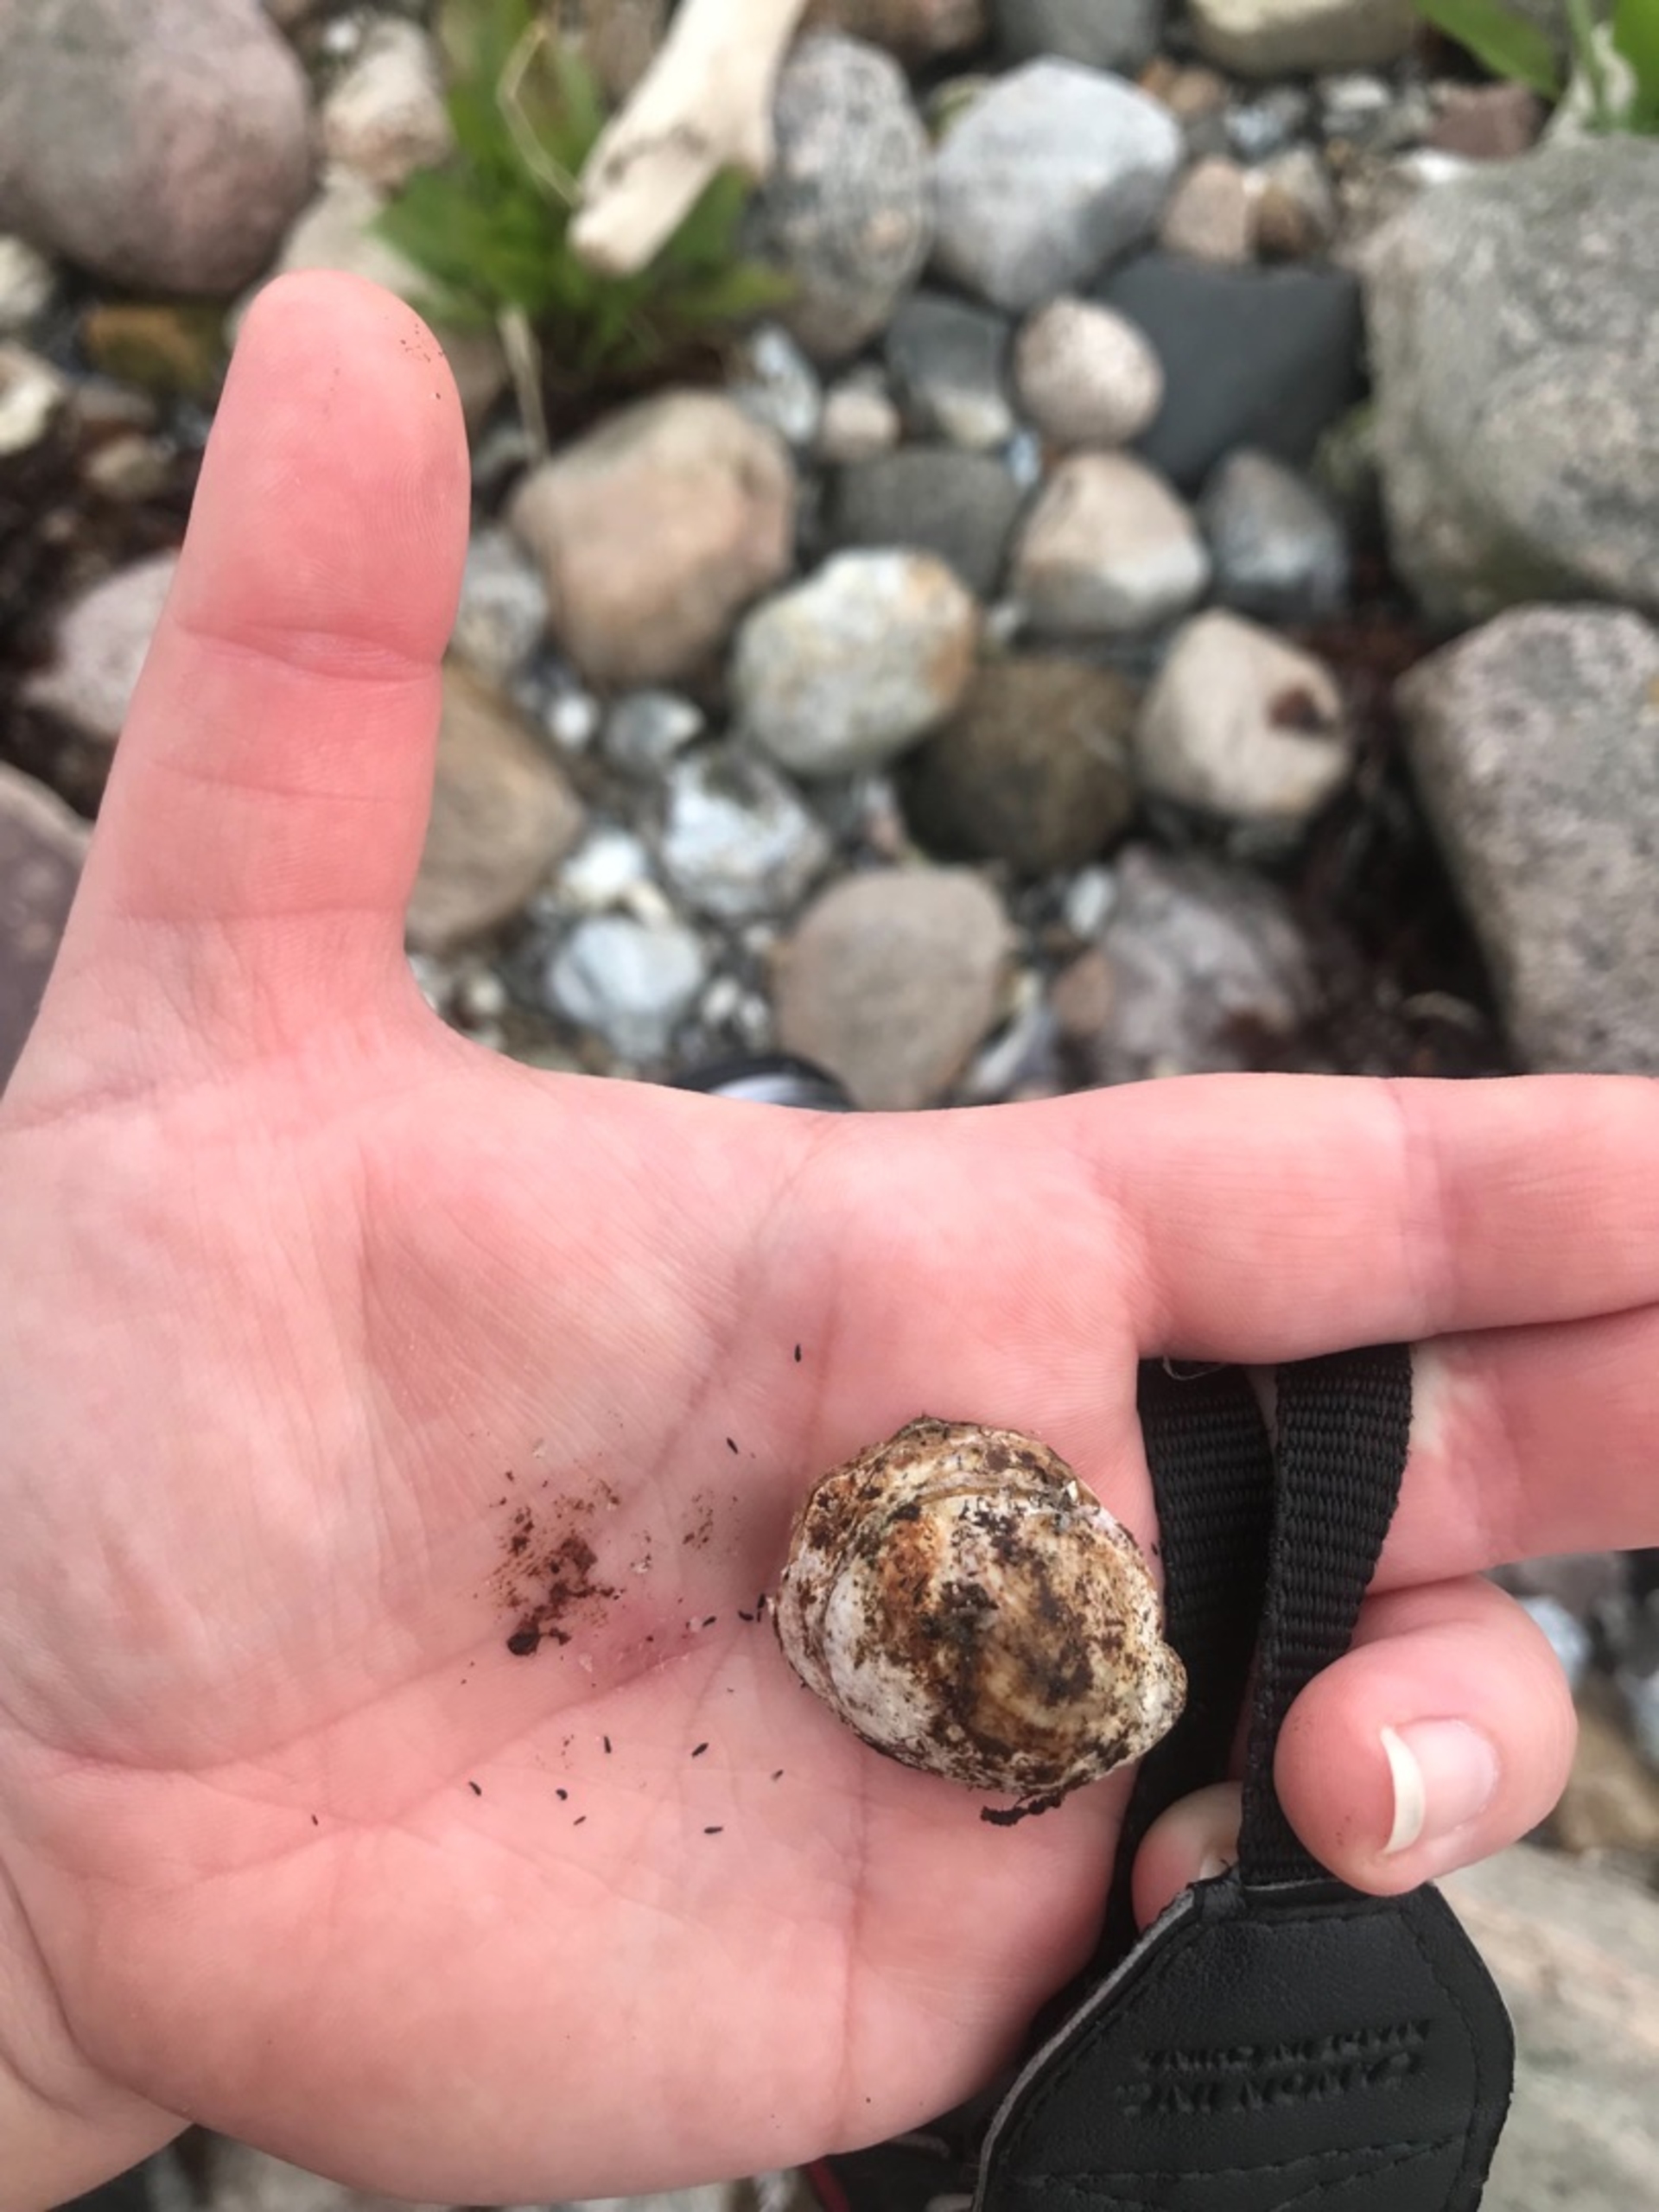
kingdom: Animalia
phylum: Mollusca
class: Gastropoda
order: Littorinimorpha
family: Calyptraeidae
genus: Crepidula
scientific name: Crepidula fornicata
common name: Tøffelsnegl
